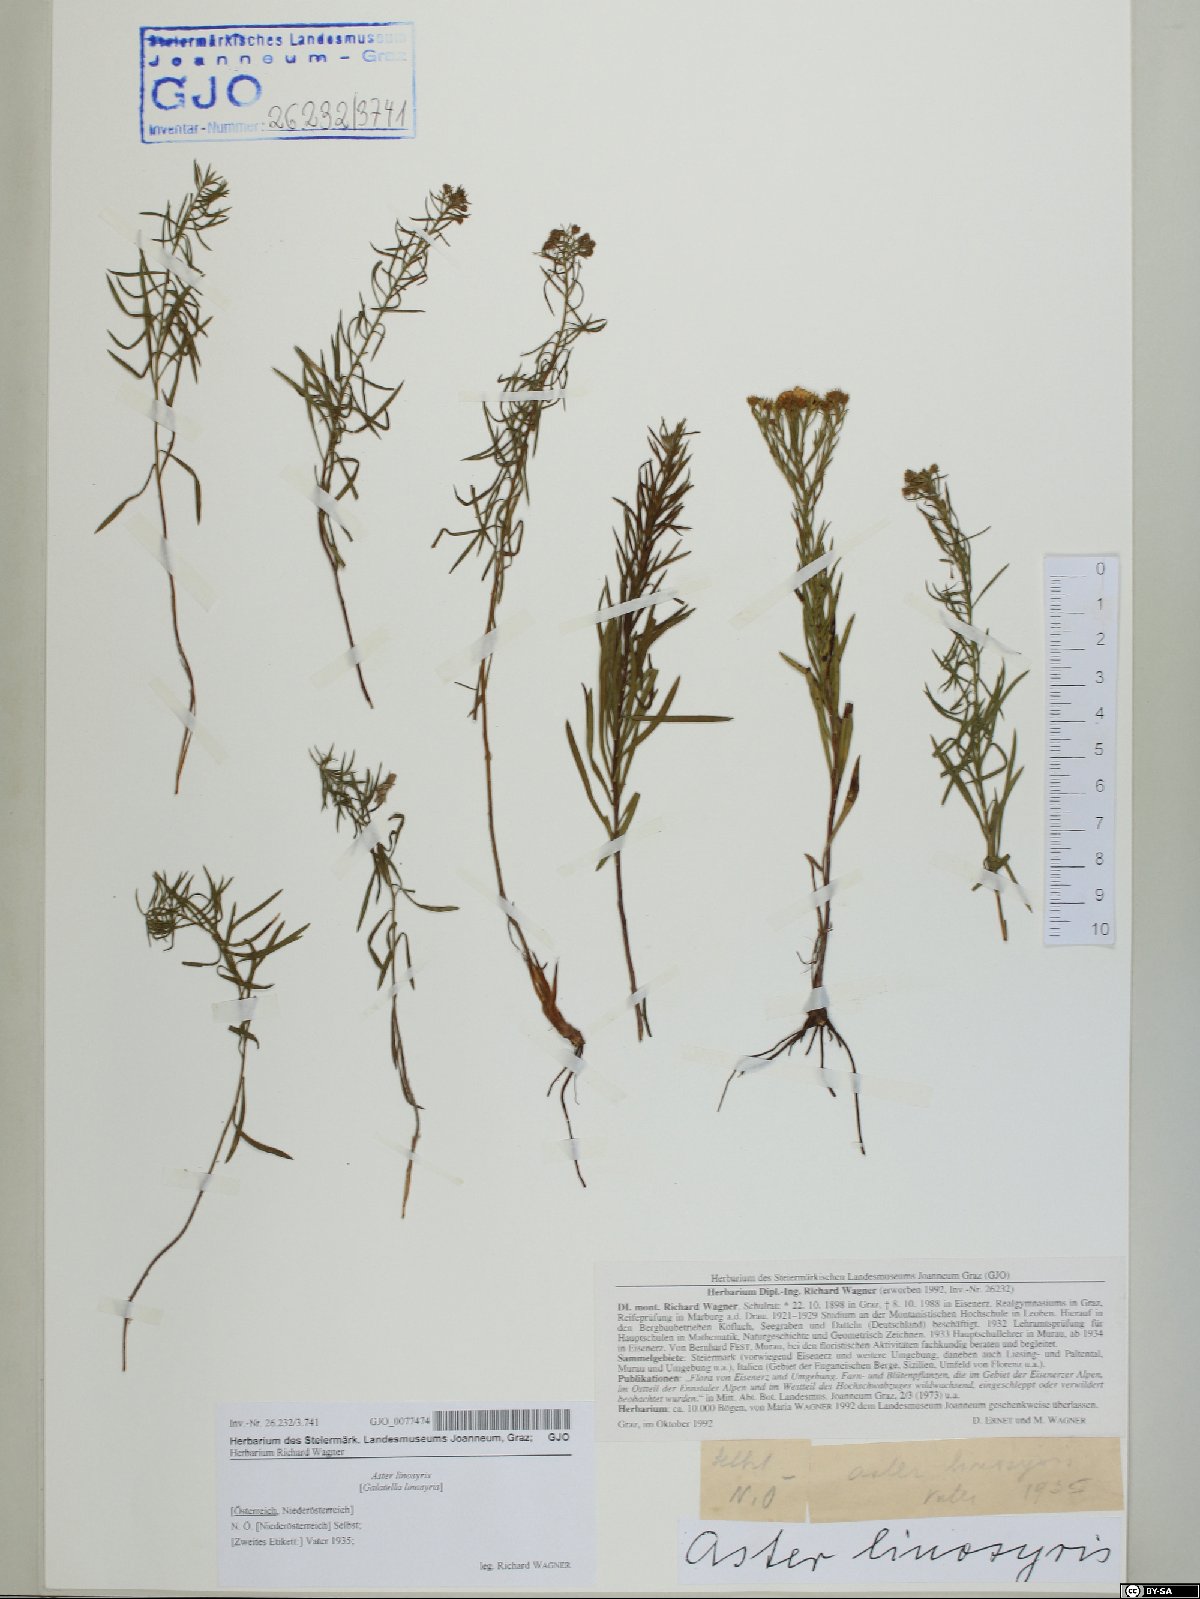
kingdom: Plantae
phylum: Tracheophyta
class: Magnoliopsida
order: Asterales
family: Asteraceae
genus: Galatella
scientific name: Galatella linosyris
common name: Goldilocks aster
